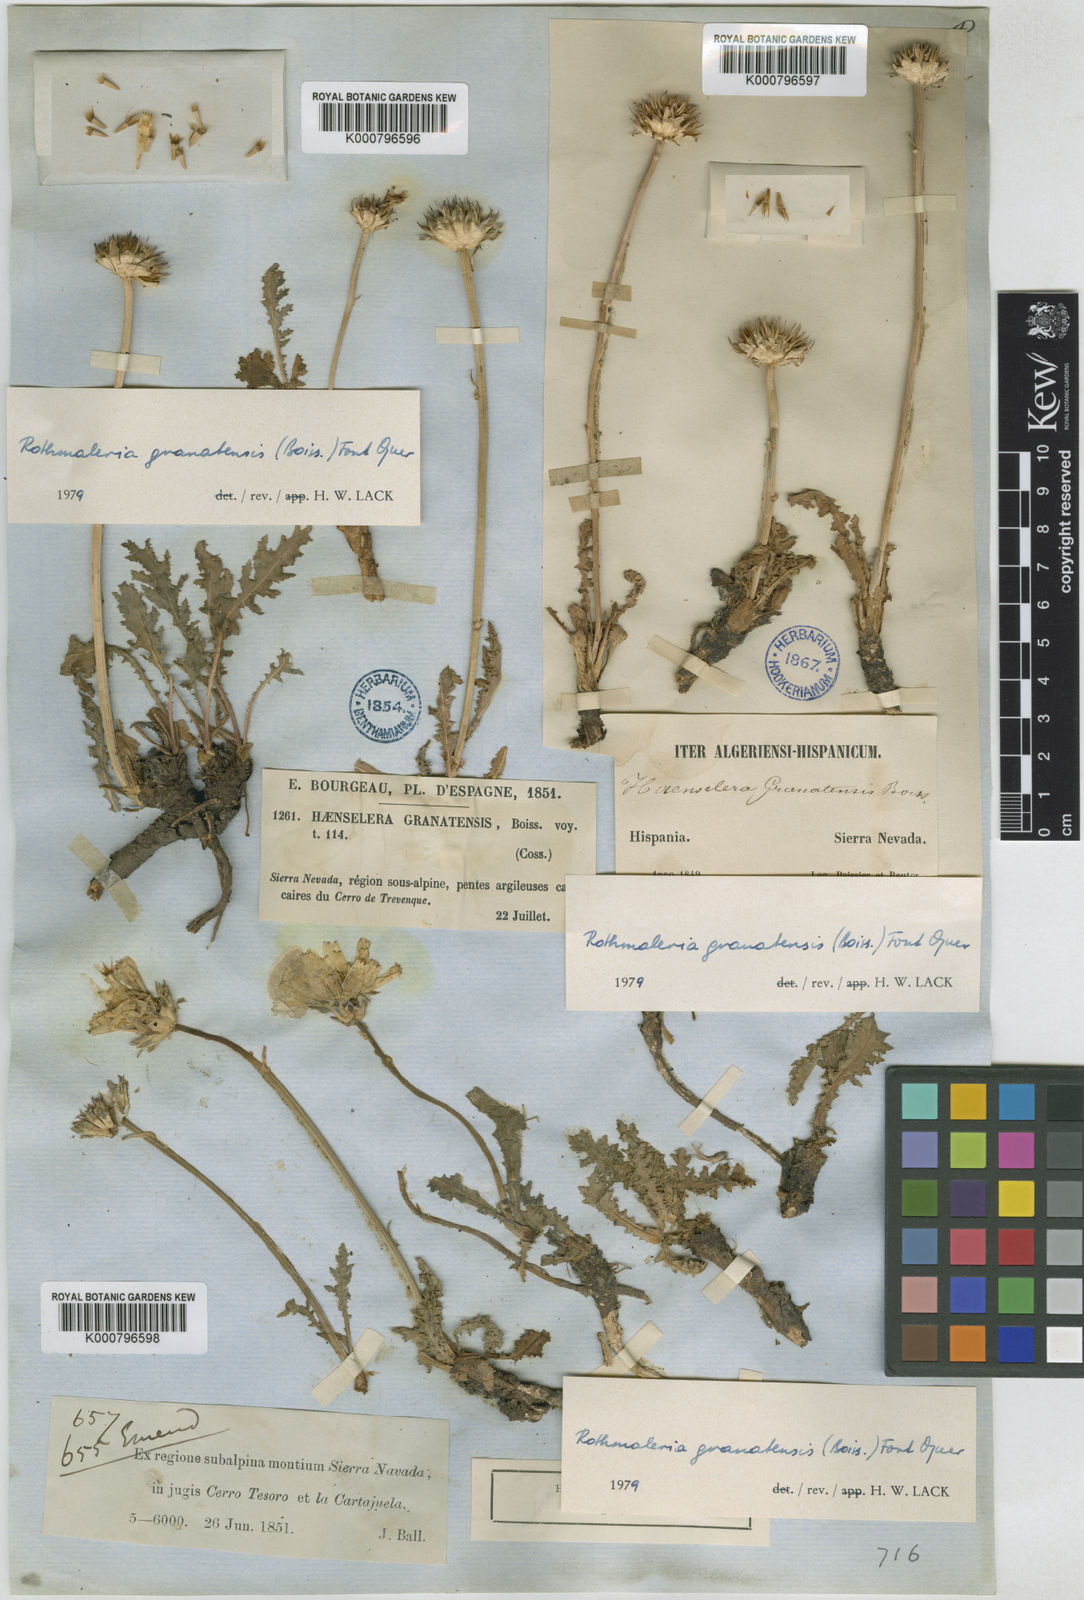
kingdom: Plantae
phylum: Tracheophyta
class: Magnoliopsida
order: Asterales
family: Asteraceae
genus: Rothmaleria
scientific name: Rothmaleria granatensis
